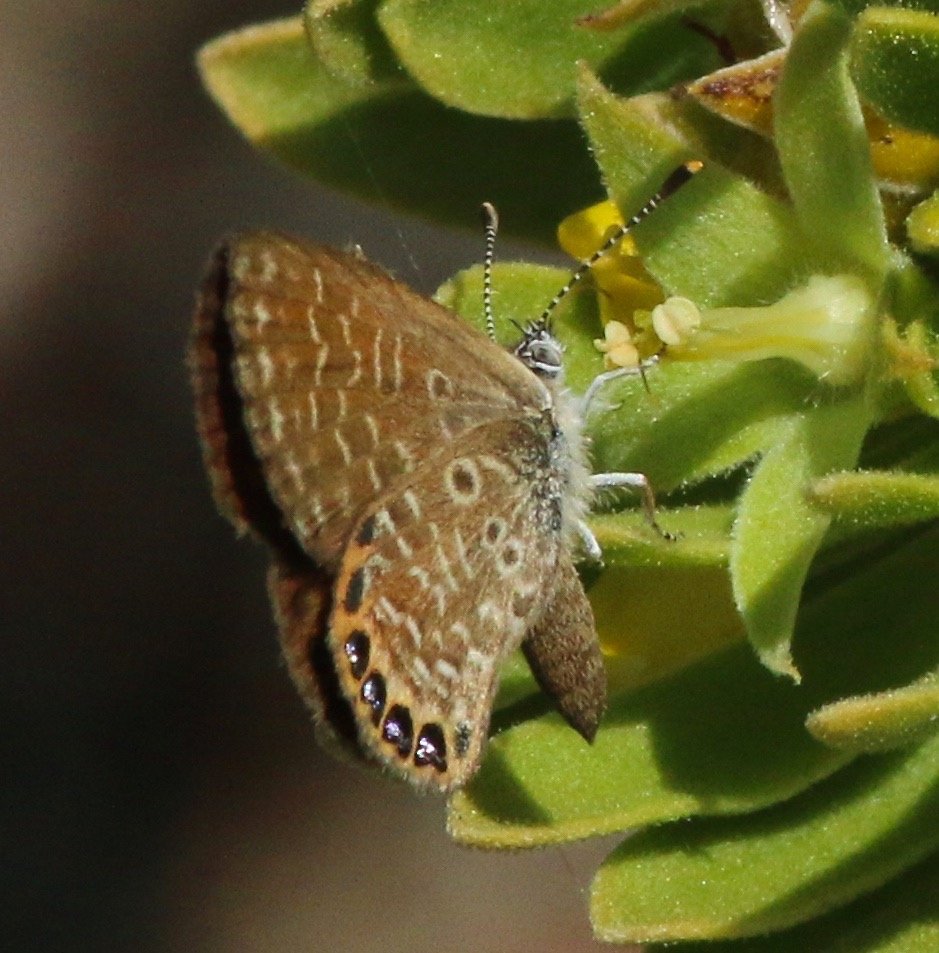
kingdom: Animalia
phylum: Arthropoda
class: Insecta
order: Lepidoptera
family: Lycaenidae
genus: Brephidium
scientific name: Brephidium isophthalma
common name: Eastern Pygmy-Blue
